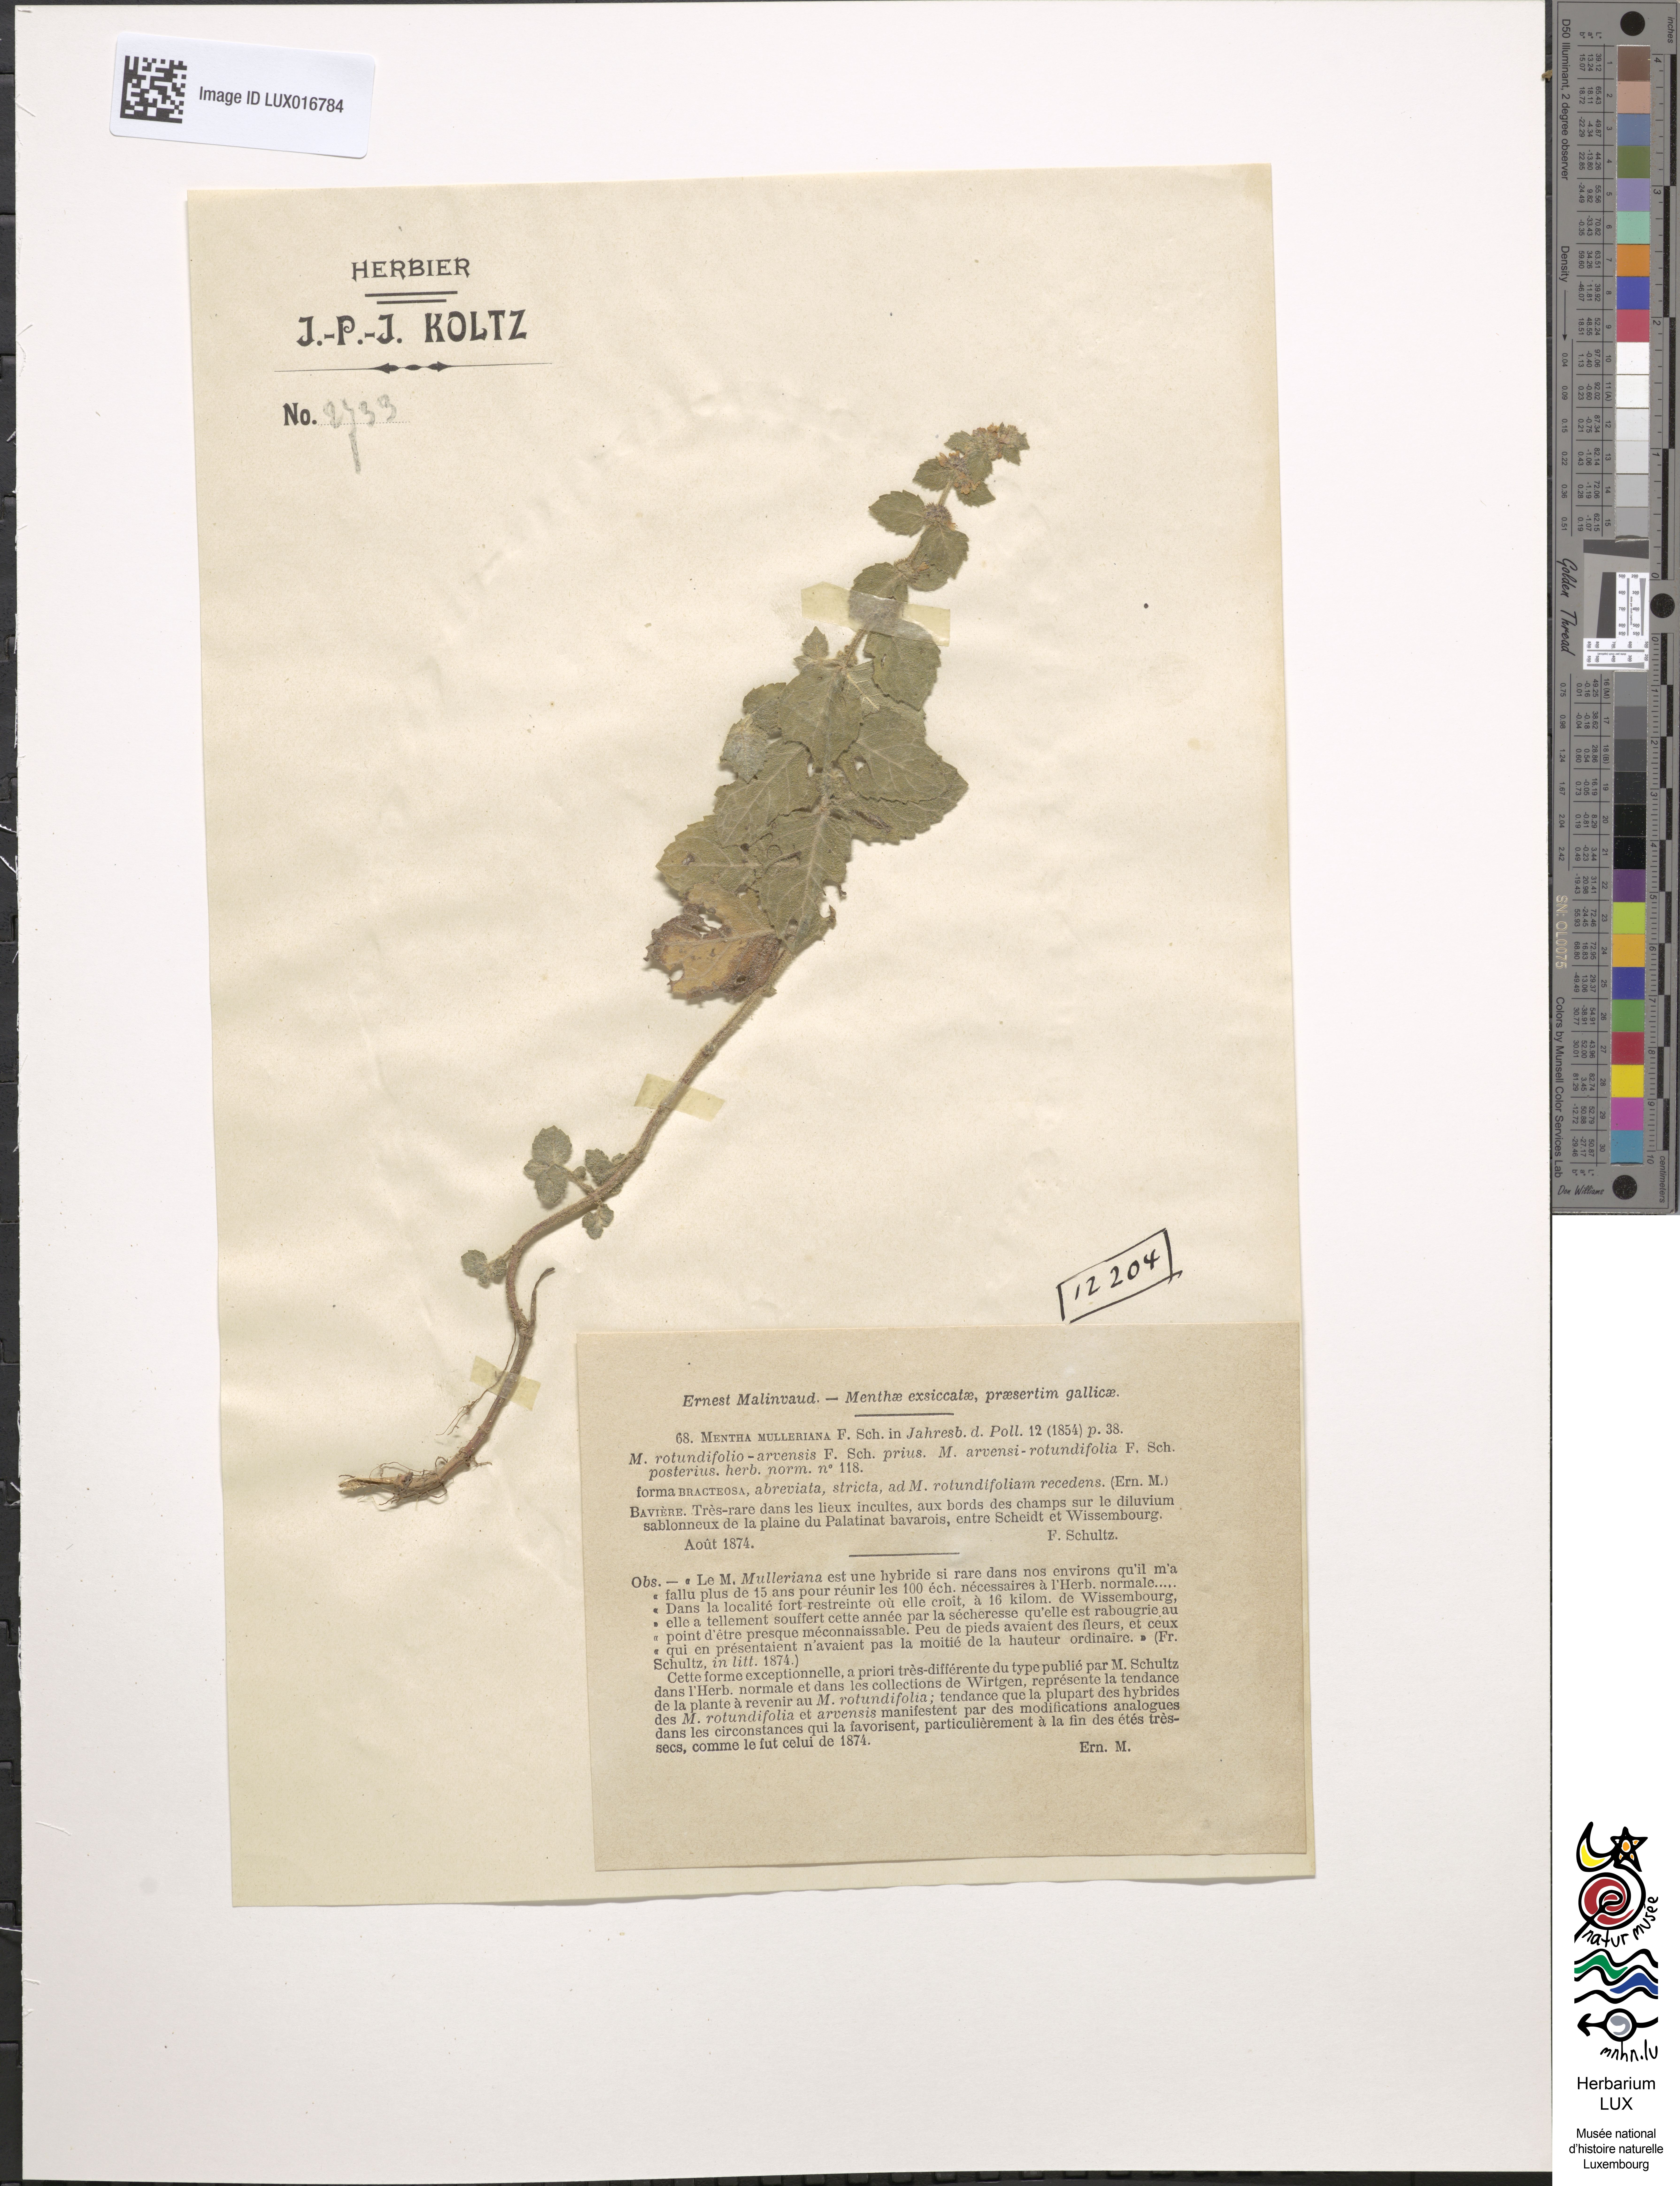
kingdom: Plantae
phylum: Tracheophyta
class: Magnoliopsida
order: Lamiales
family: Lamiaceae
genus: Mentha
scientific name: Mentha carinthiaca
